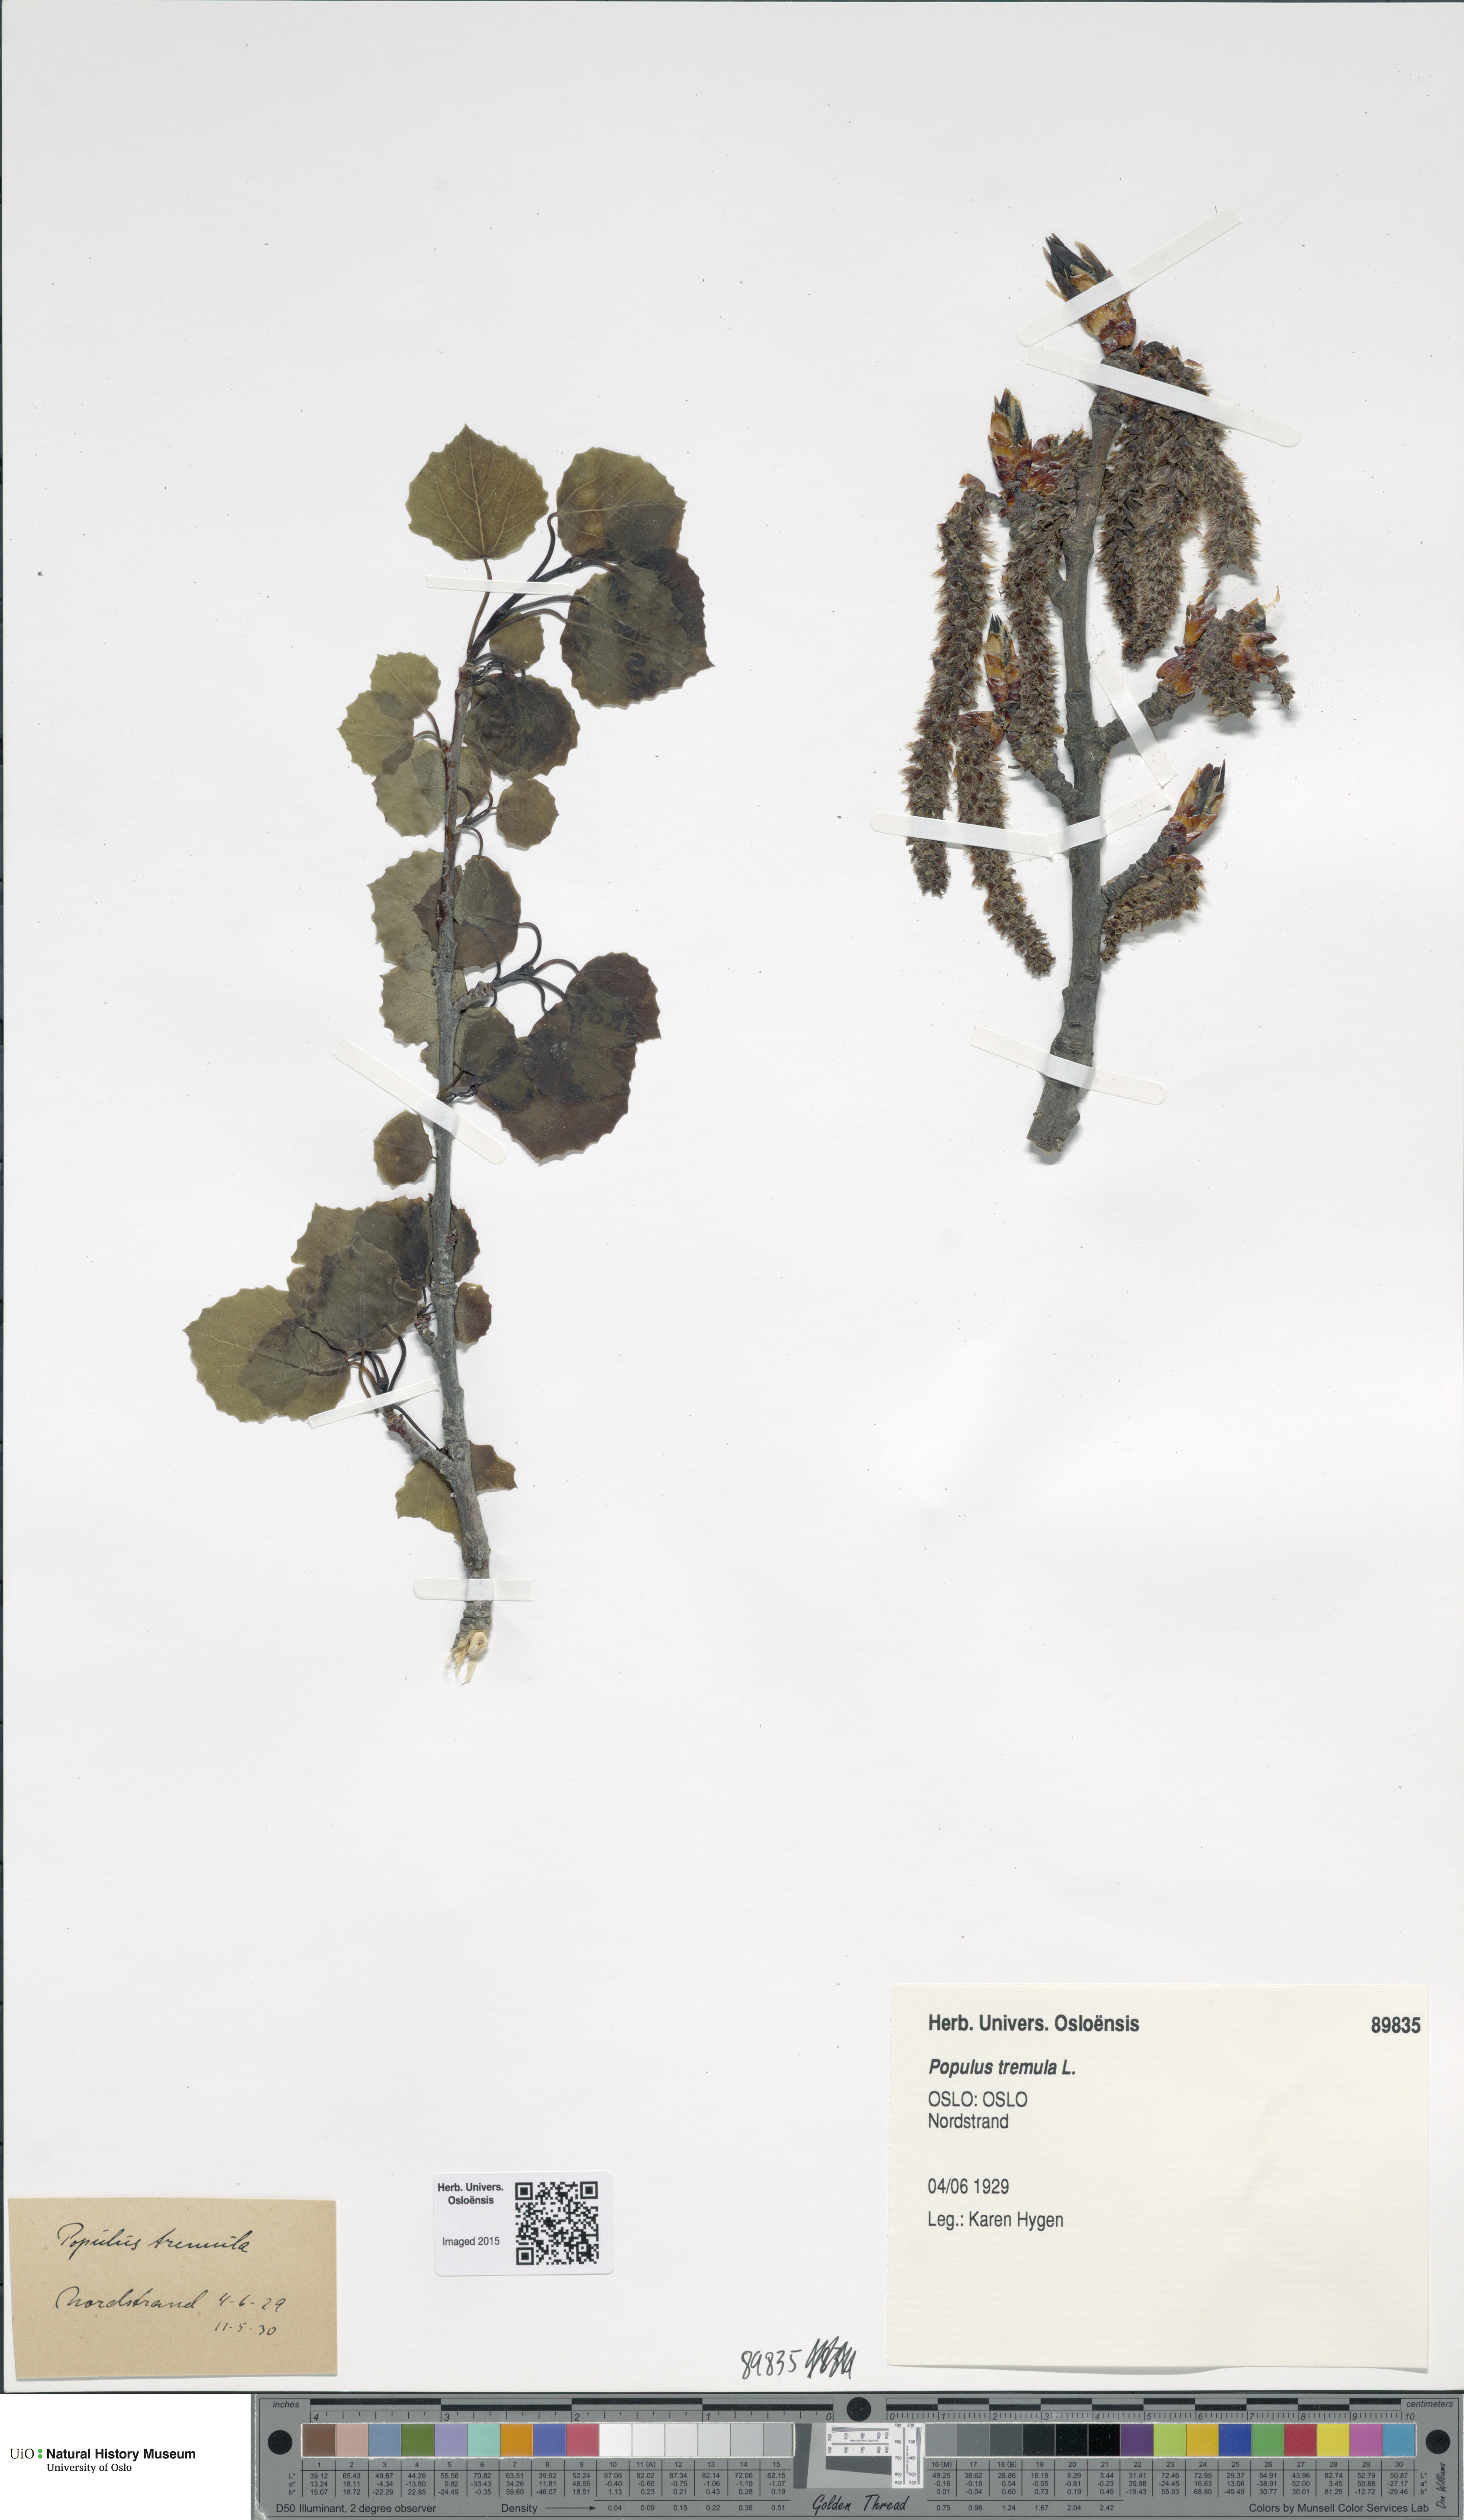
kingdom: Plantae
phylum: Tracheophyta
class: Magnoliopsida
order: Malpighiales
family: Salicaceae
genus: Populus
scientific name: Populus tremula
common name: European aspen
